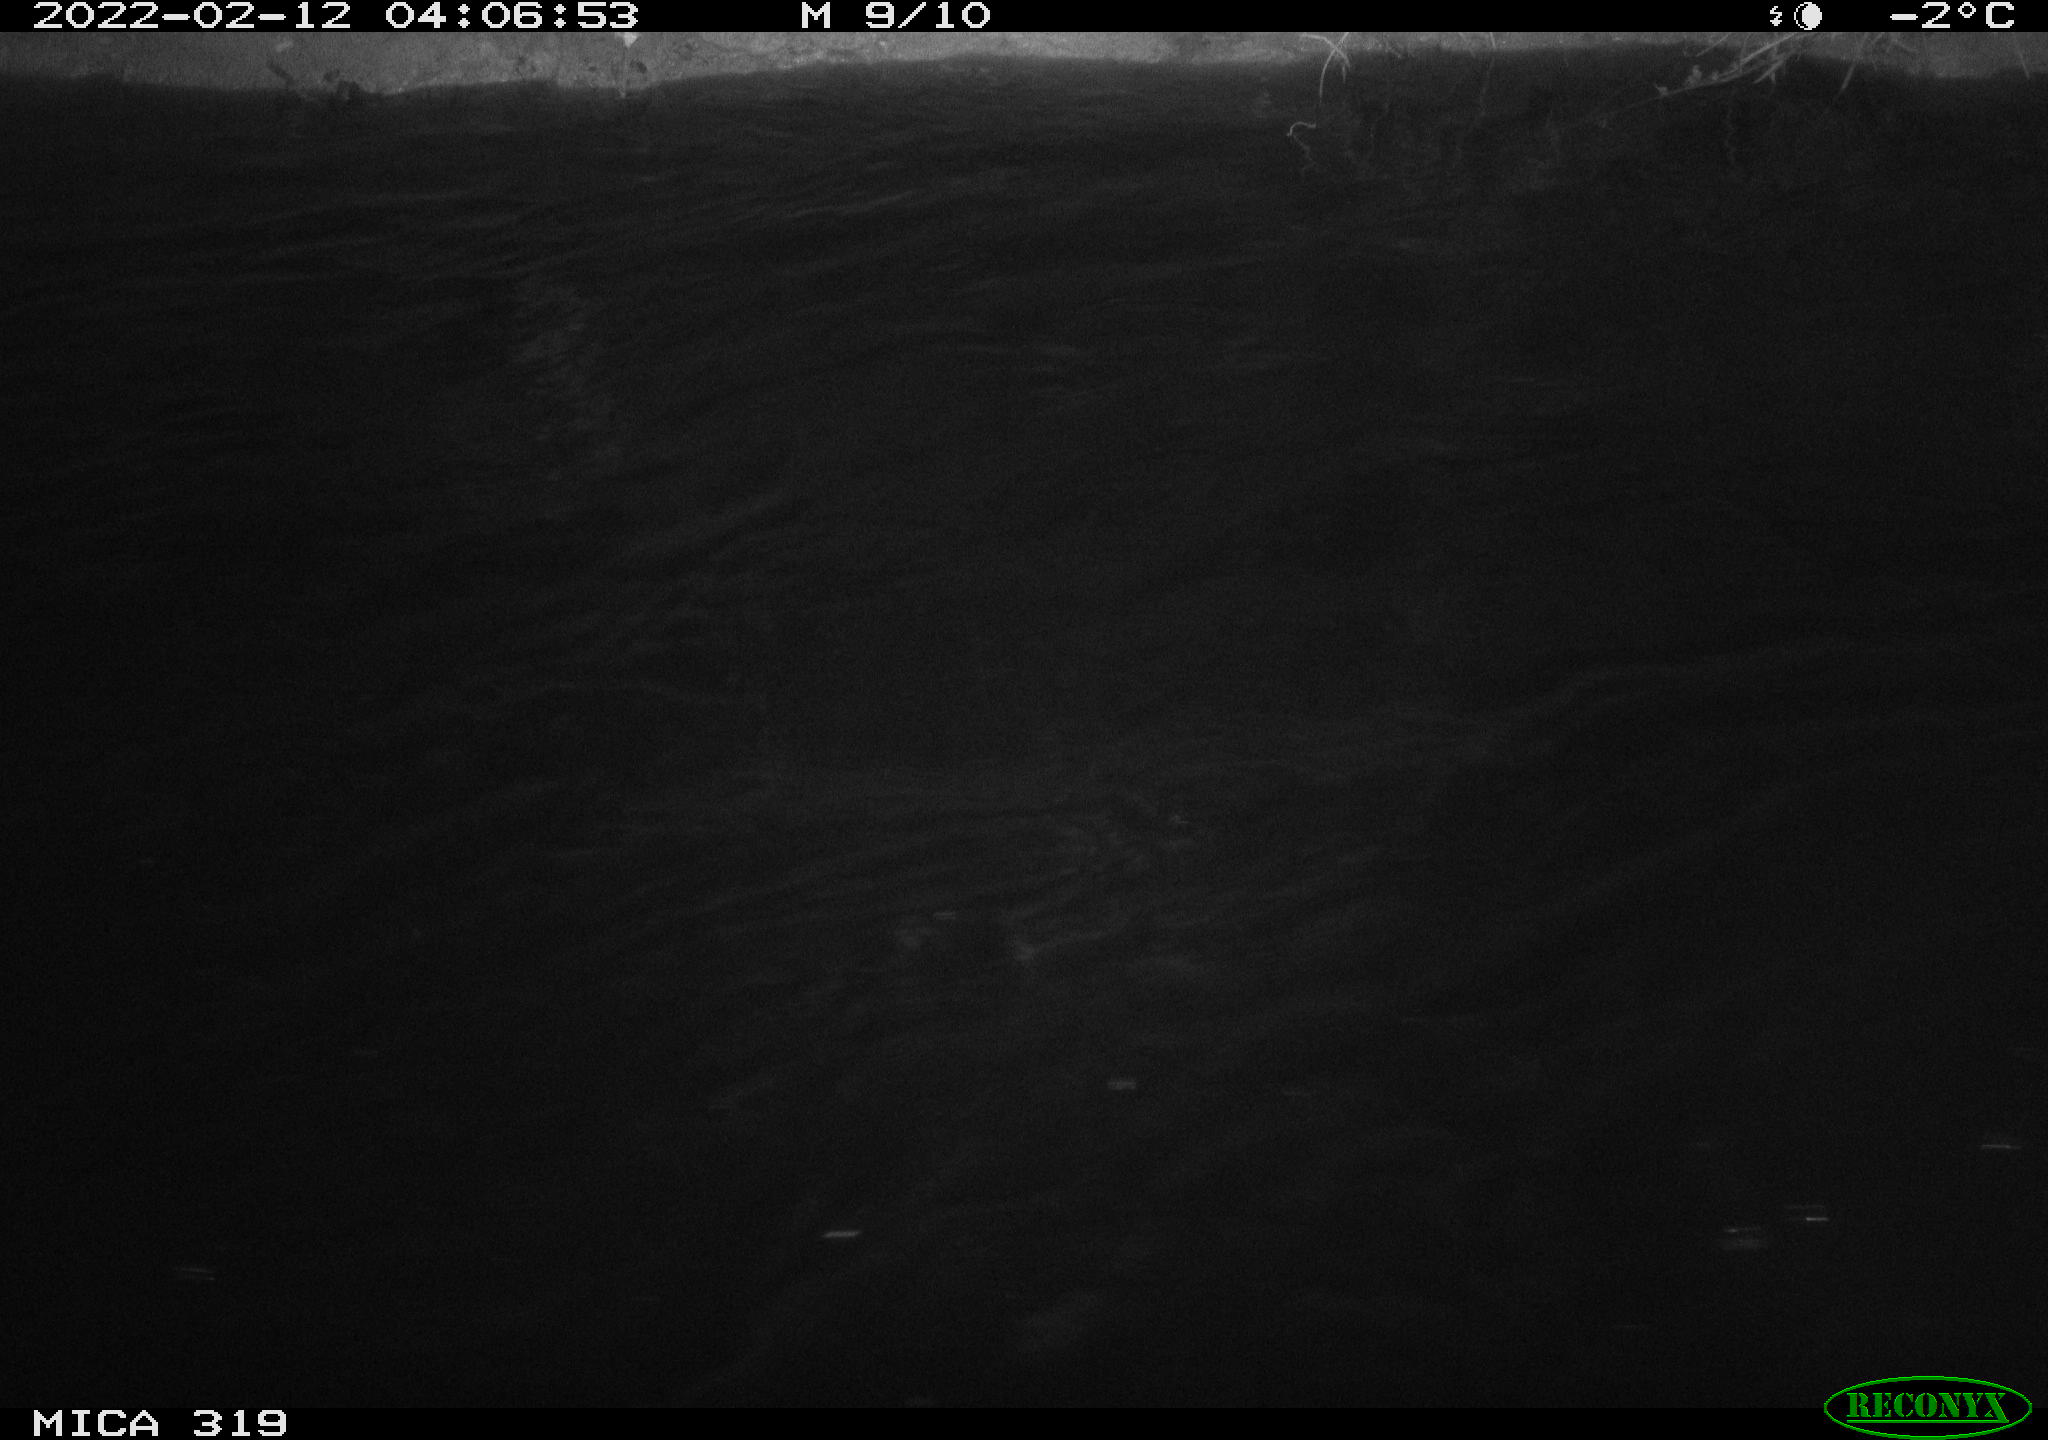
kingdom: Animalia
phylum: Chordata
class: Aves
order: Anseriformes
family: Anatidae
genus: Anas
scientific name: Anas platyrhynchos
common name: Mallard
